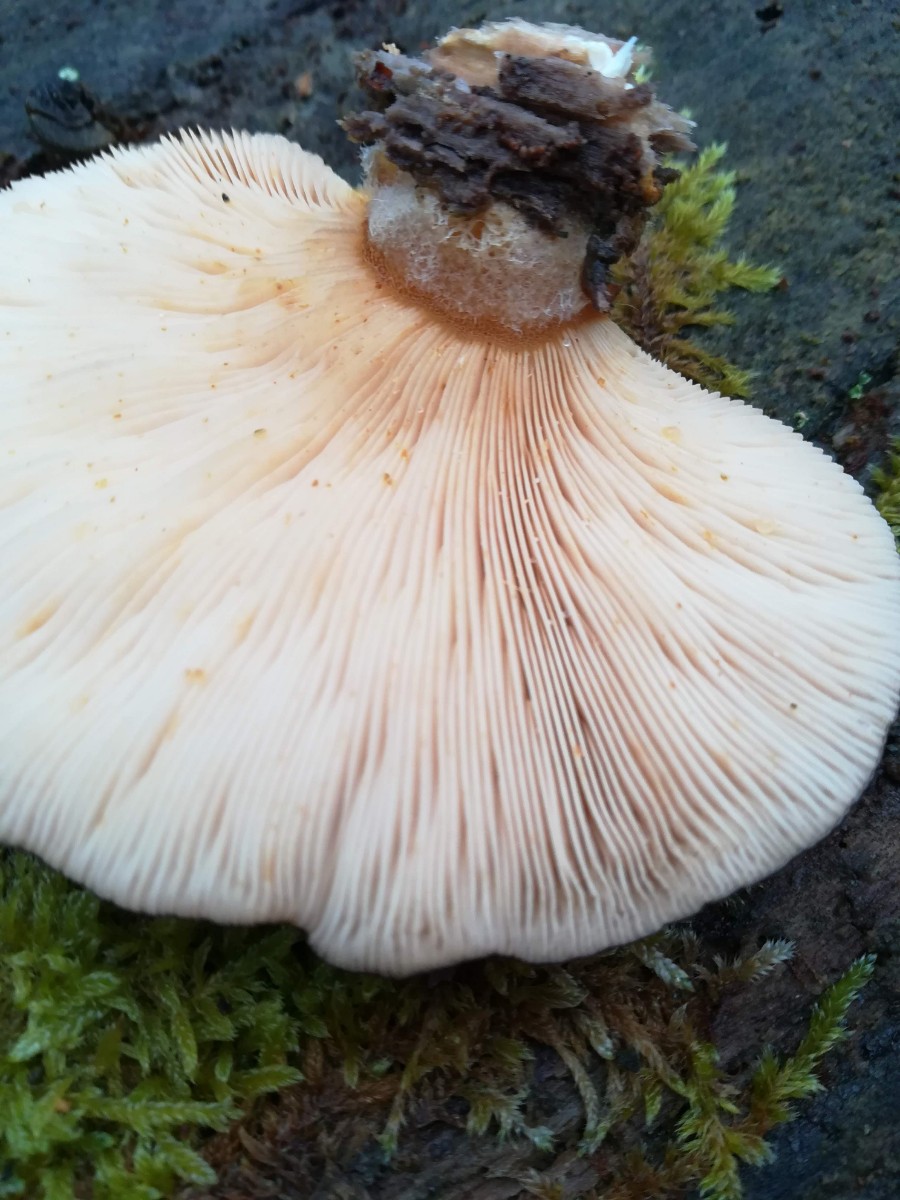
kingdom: Fungi
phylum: Basidiomycota
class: Agaricomycetes
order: Agaricales
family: Sarcomyxaceae
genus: Sarcomyxa
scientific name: Sarcomyxa serotina
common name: gummihat
